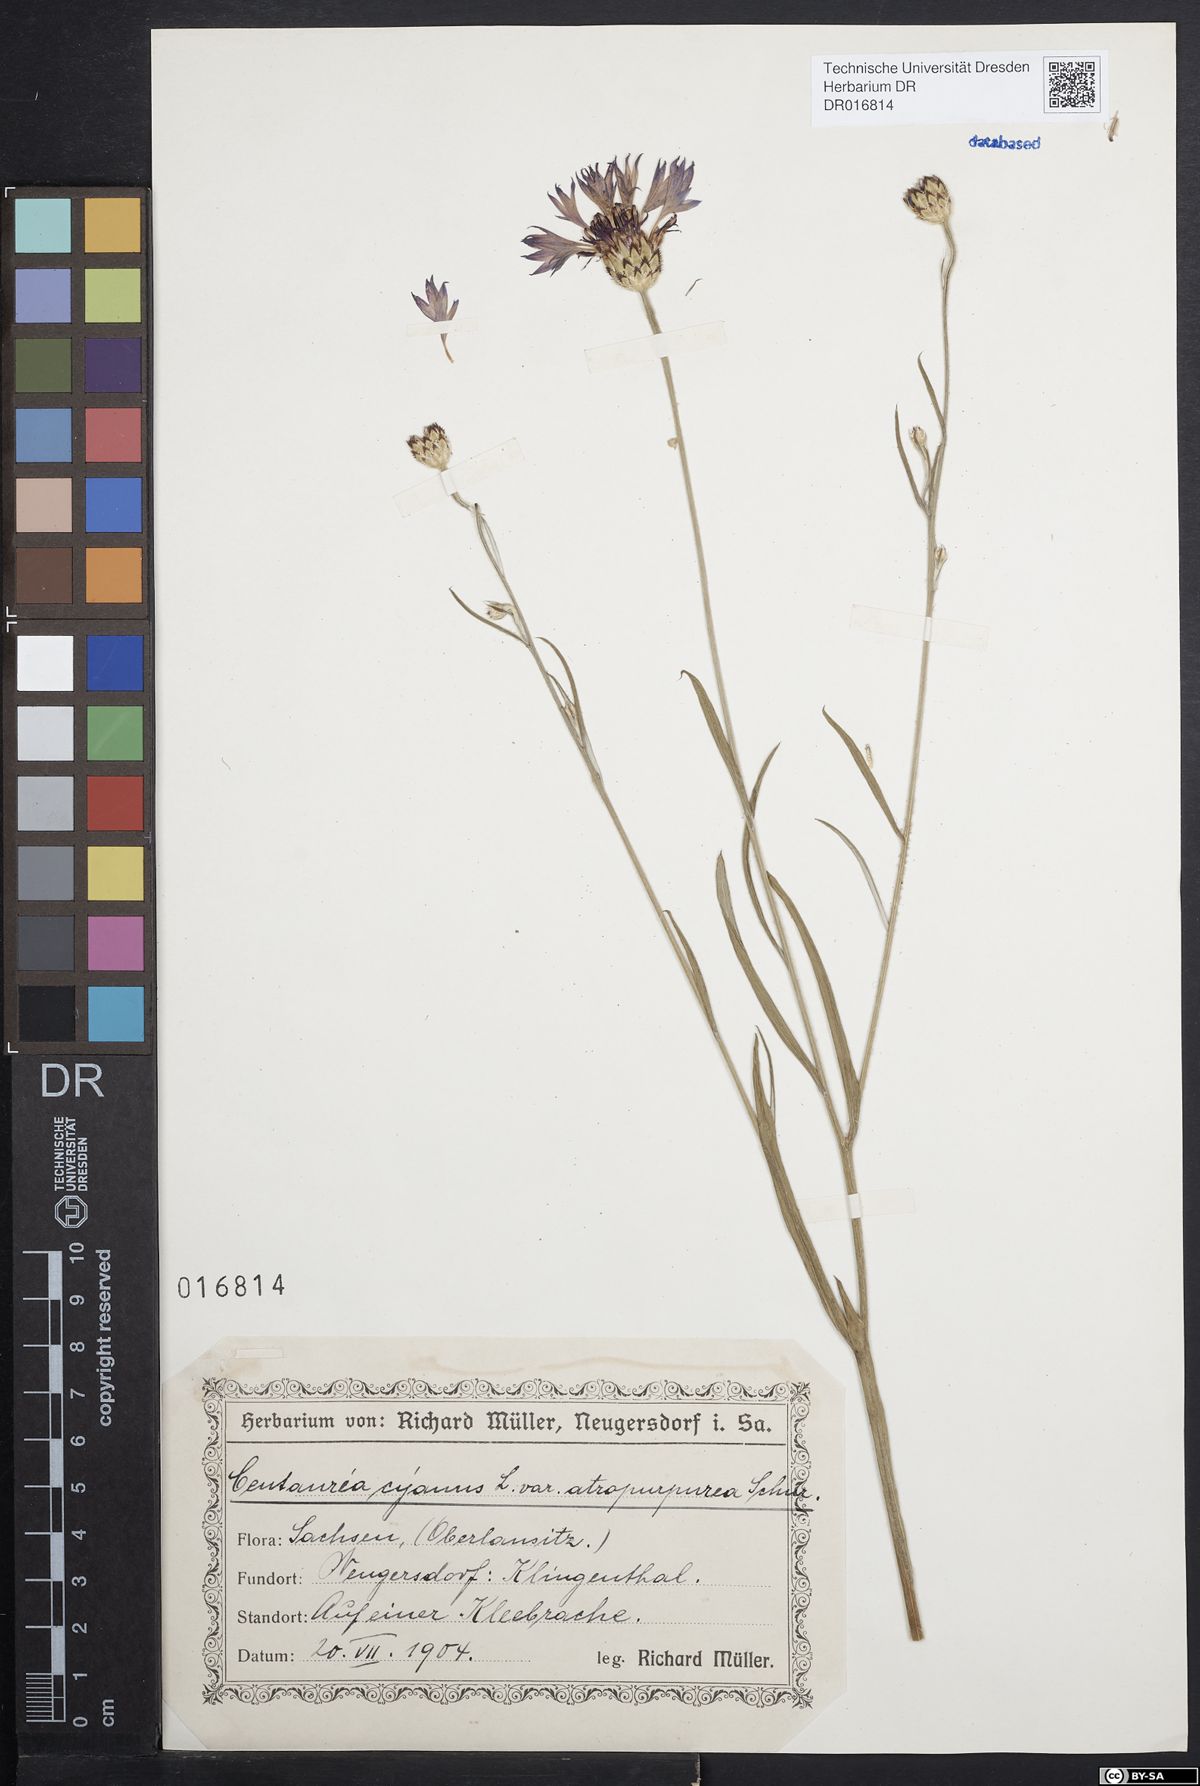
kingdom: Plantae
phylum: Tracheophyta
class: Magnoliopsida
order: Asterales
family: Asteraceae
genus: Centaurea
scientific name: Centaurea cyanus
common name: Cornflower
